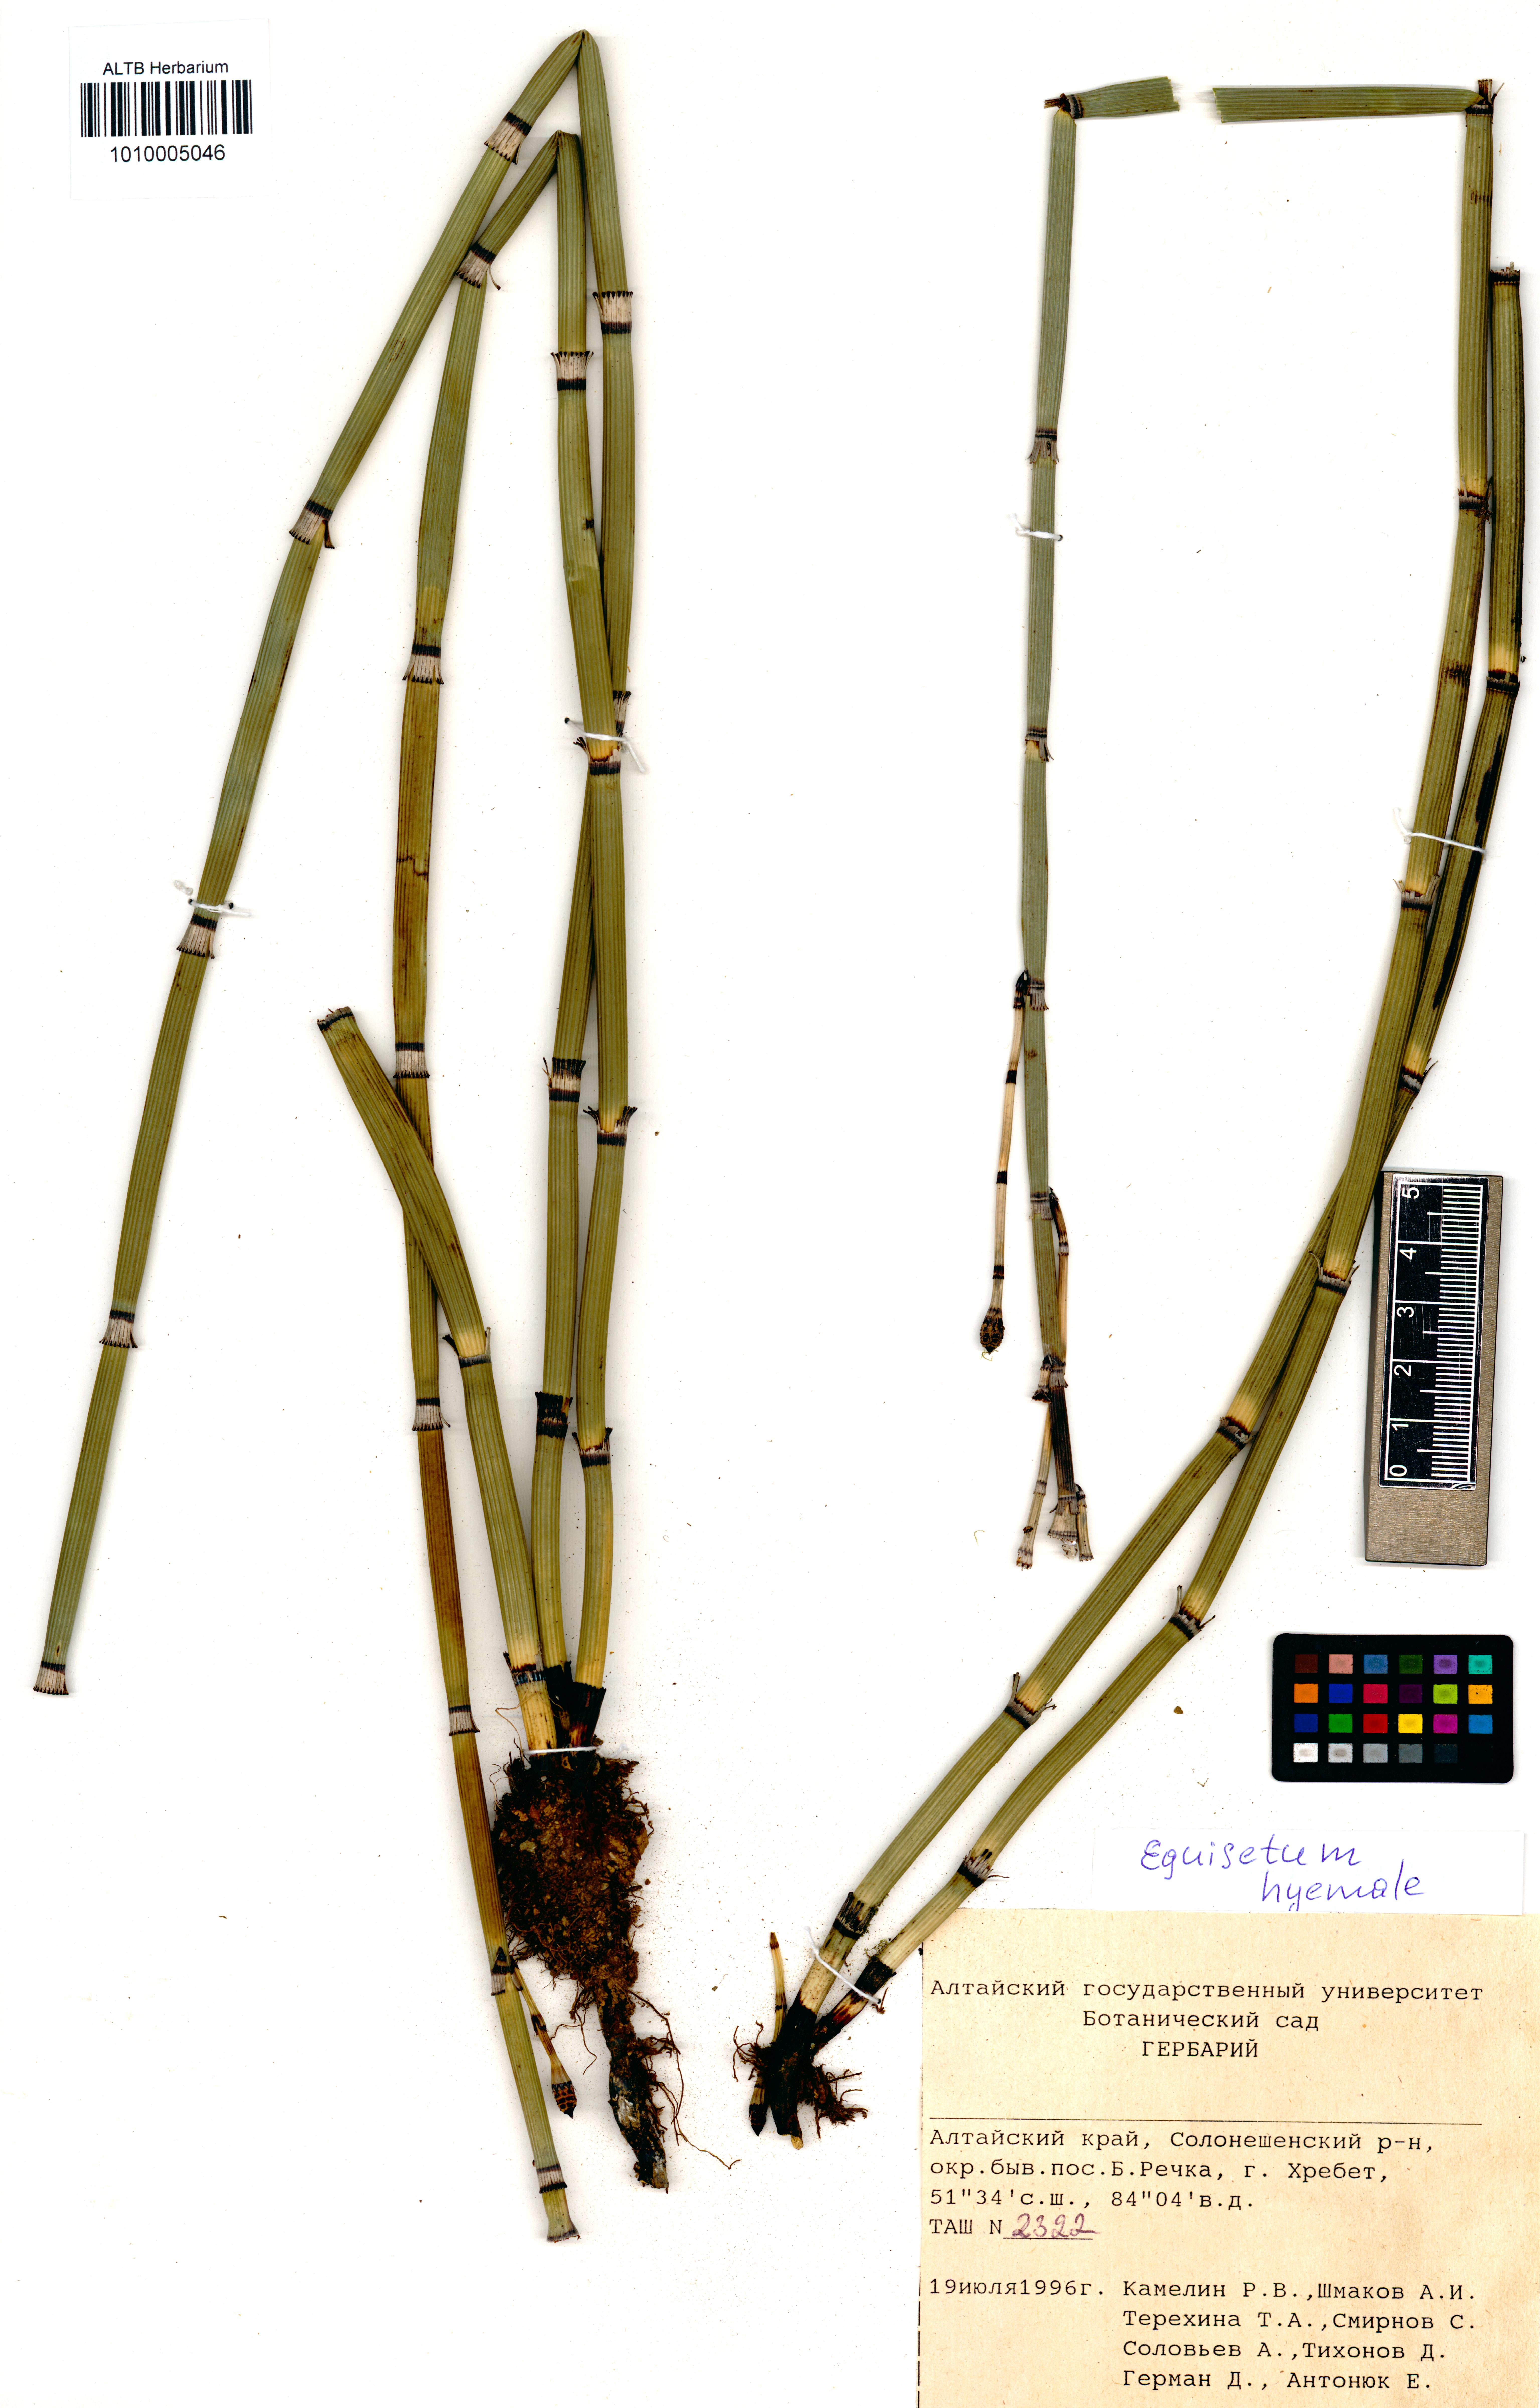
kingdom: Plantae
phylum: Tracheophyta
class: Polypodiopsida
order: Equisetales
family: Equisetaceae
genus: Equisetum
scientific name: Equisetum hyemale
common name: Rough horsetail
